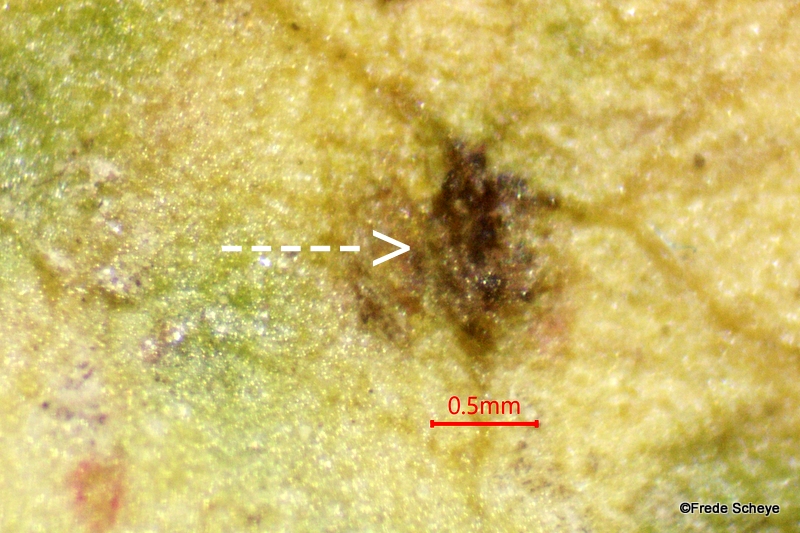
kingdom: Fungi
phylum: Ascomycota
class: Dothideomycetes
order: Venturiales
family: Venturiaceae
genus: Venturia
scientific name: Venturia rumicis
